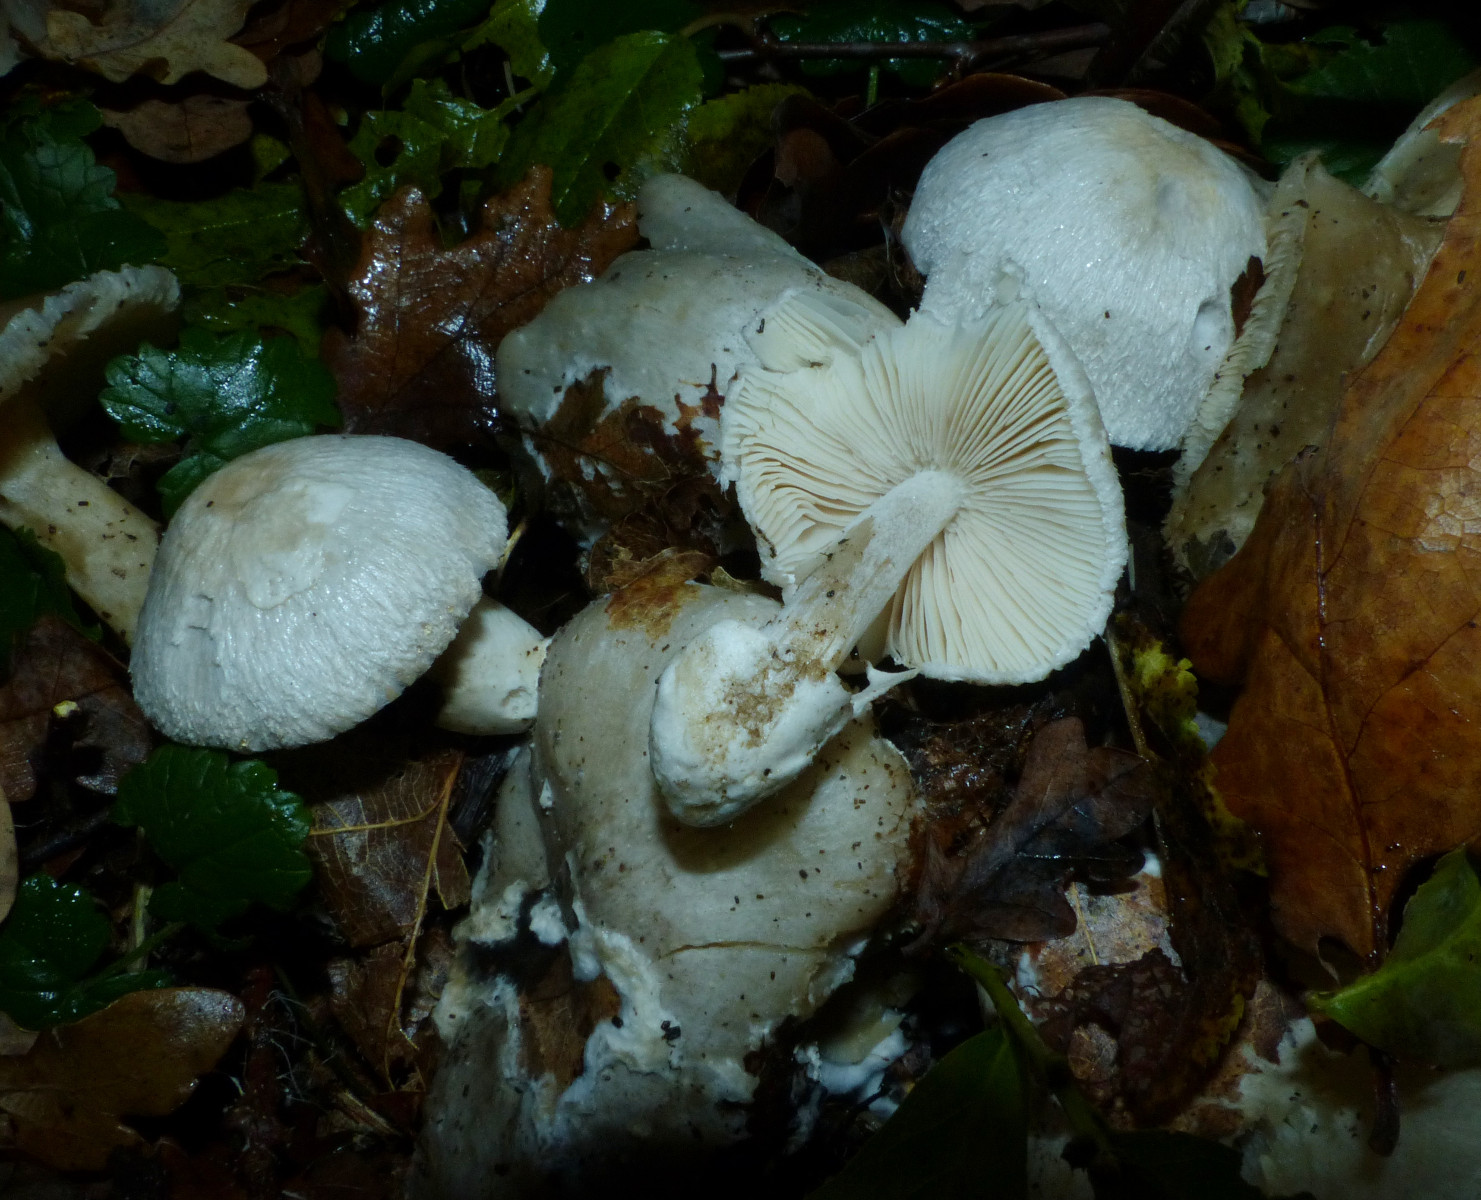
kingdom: Fungi
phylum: Basidiomycota
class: Agaricomycetes
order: Agaricales
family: Pluteaceae
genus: Volvariella
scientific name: Volvariella surrecta
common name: snyltende posesvamp
